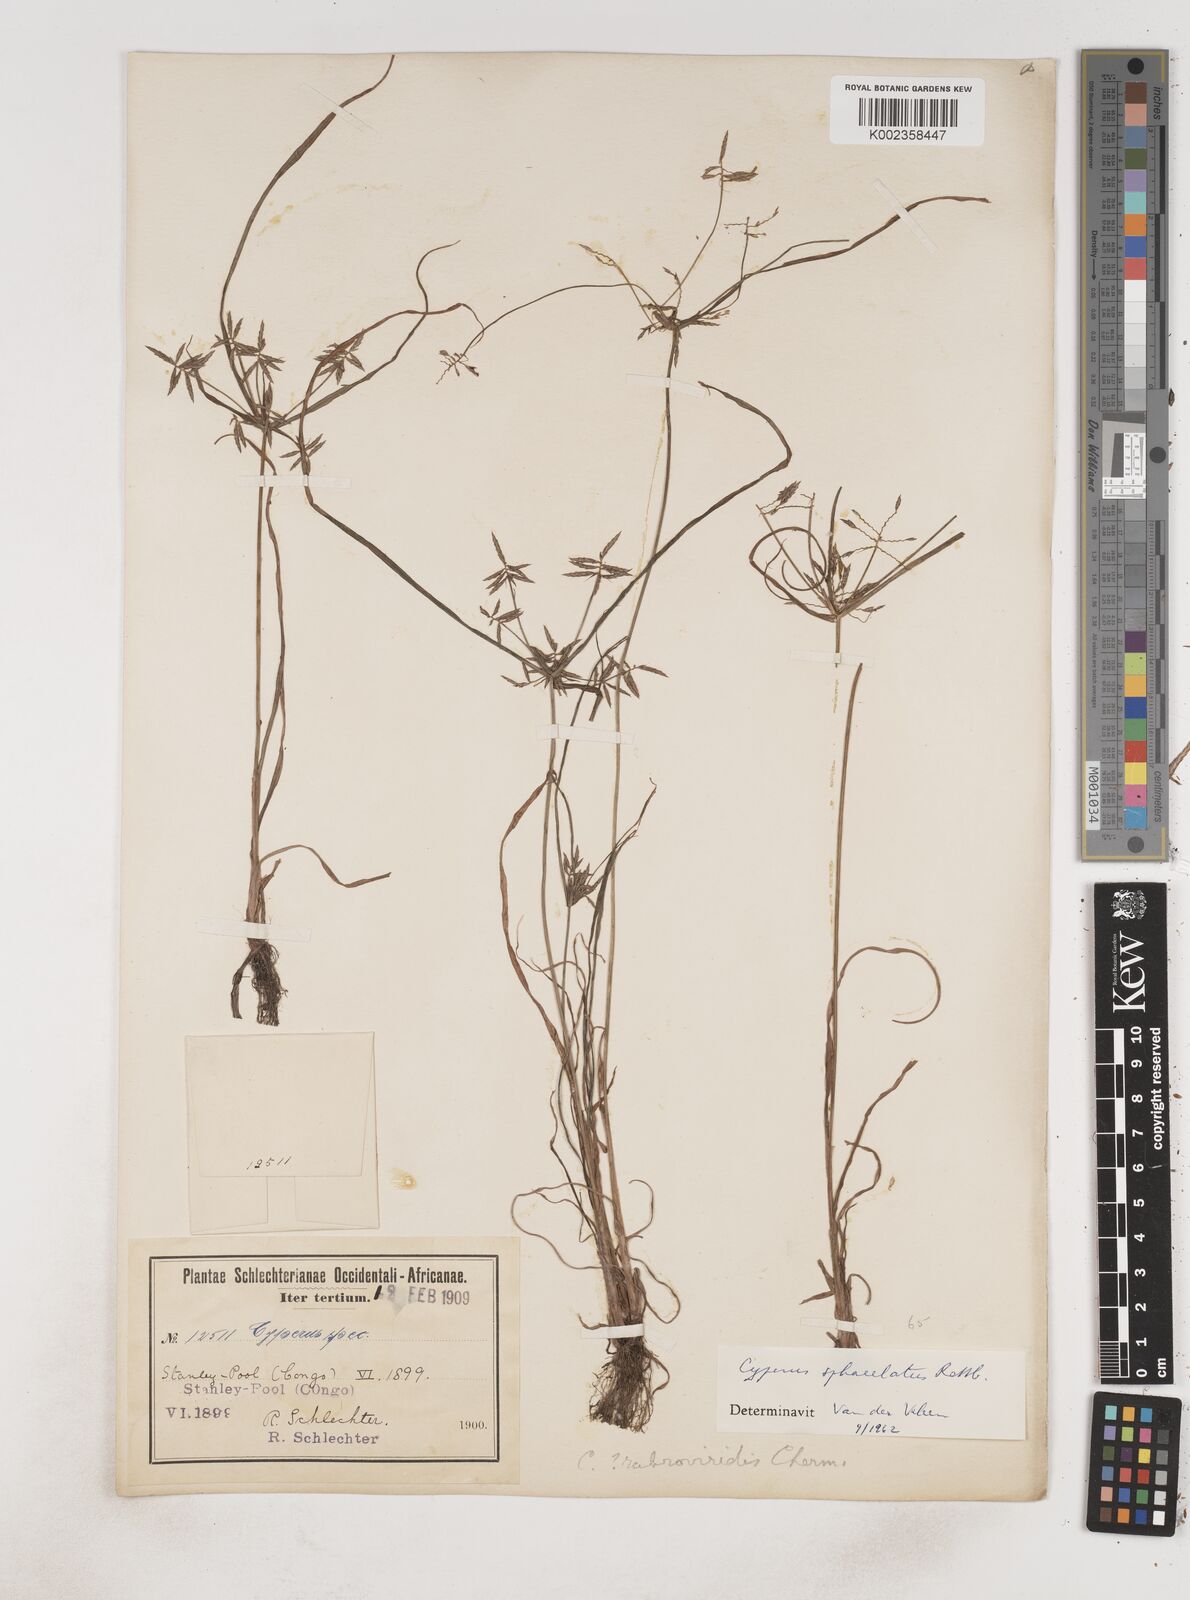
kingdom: Plantae
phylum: Tracheophyta
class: Liliopsida
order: Poales
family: Cyperaceae
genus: Cyperus
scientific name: Cyperus sphacelatus
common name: Roadside flatsedge
